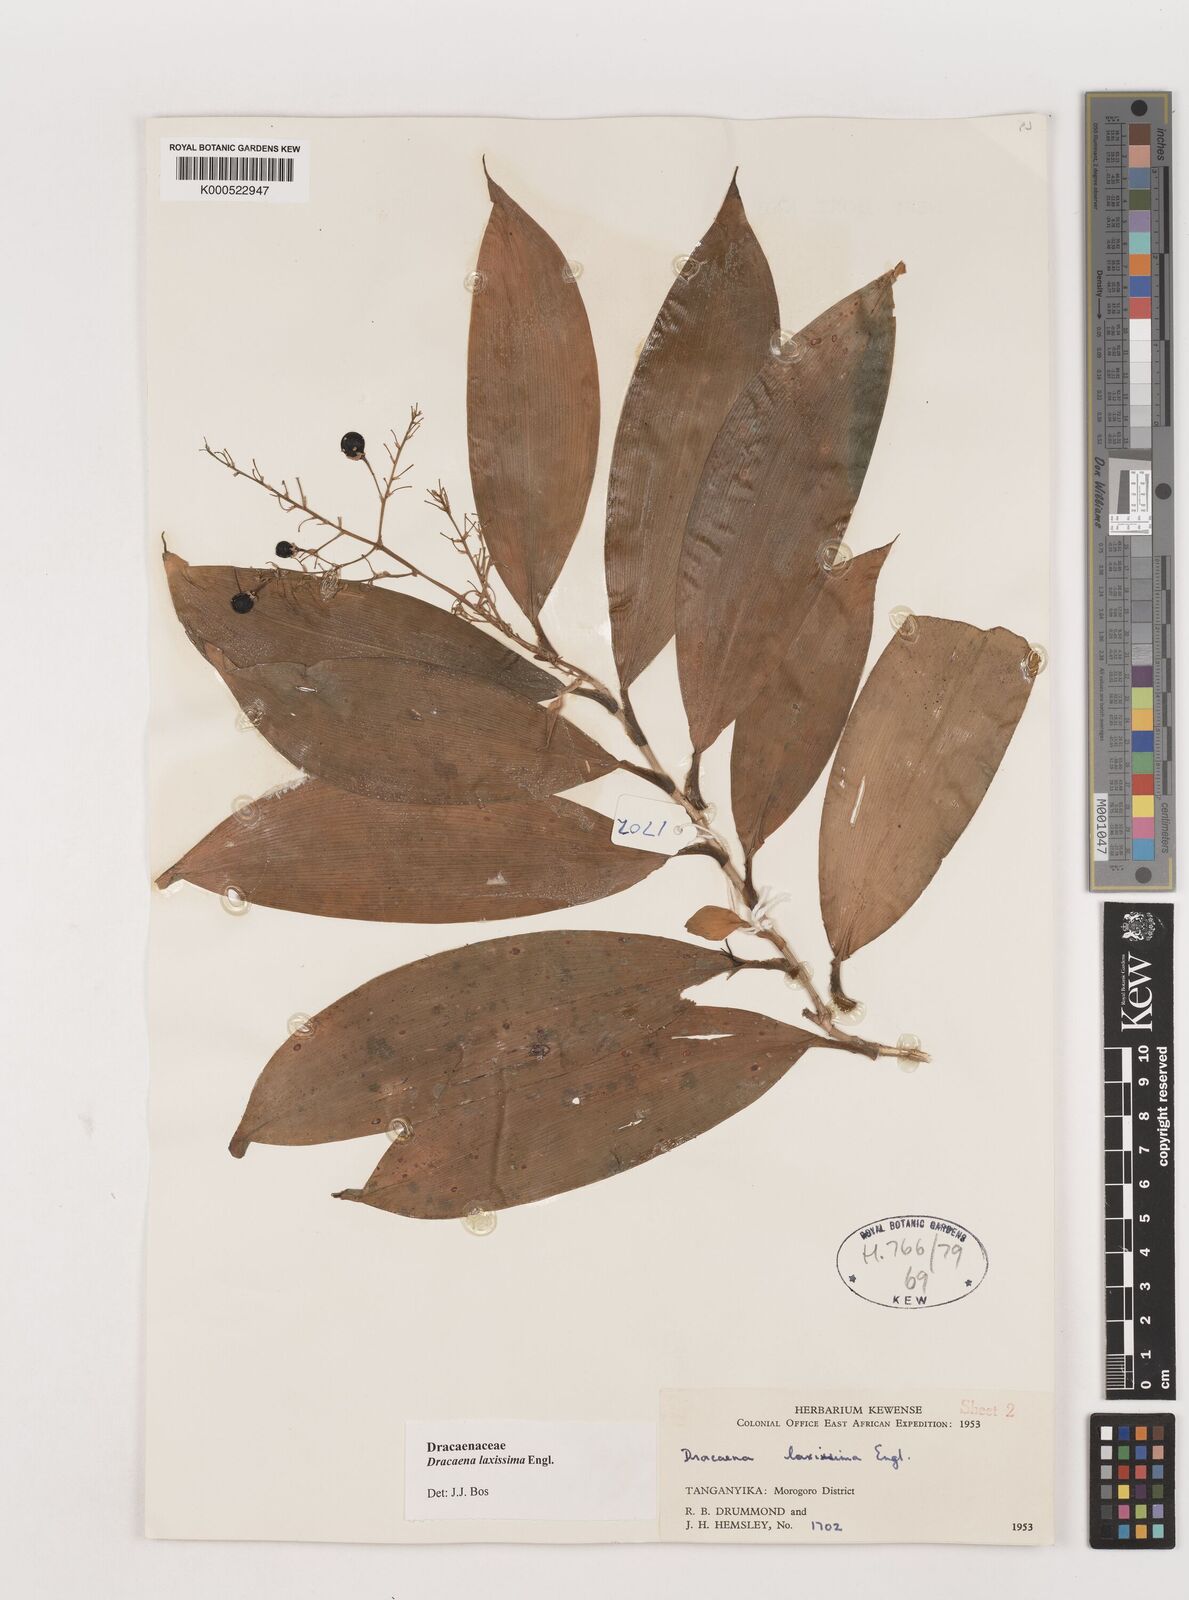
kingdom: Plantae
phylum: Tracheophyta
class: Liliopsida
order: Asparagales
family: Asparagaceae
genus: Dracaena
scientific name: Dracaena laxissima
